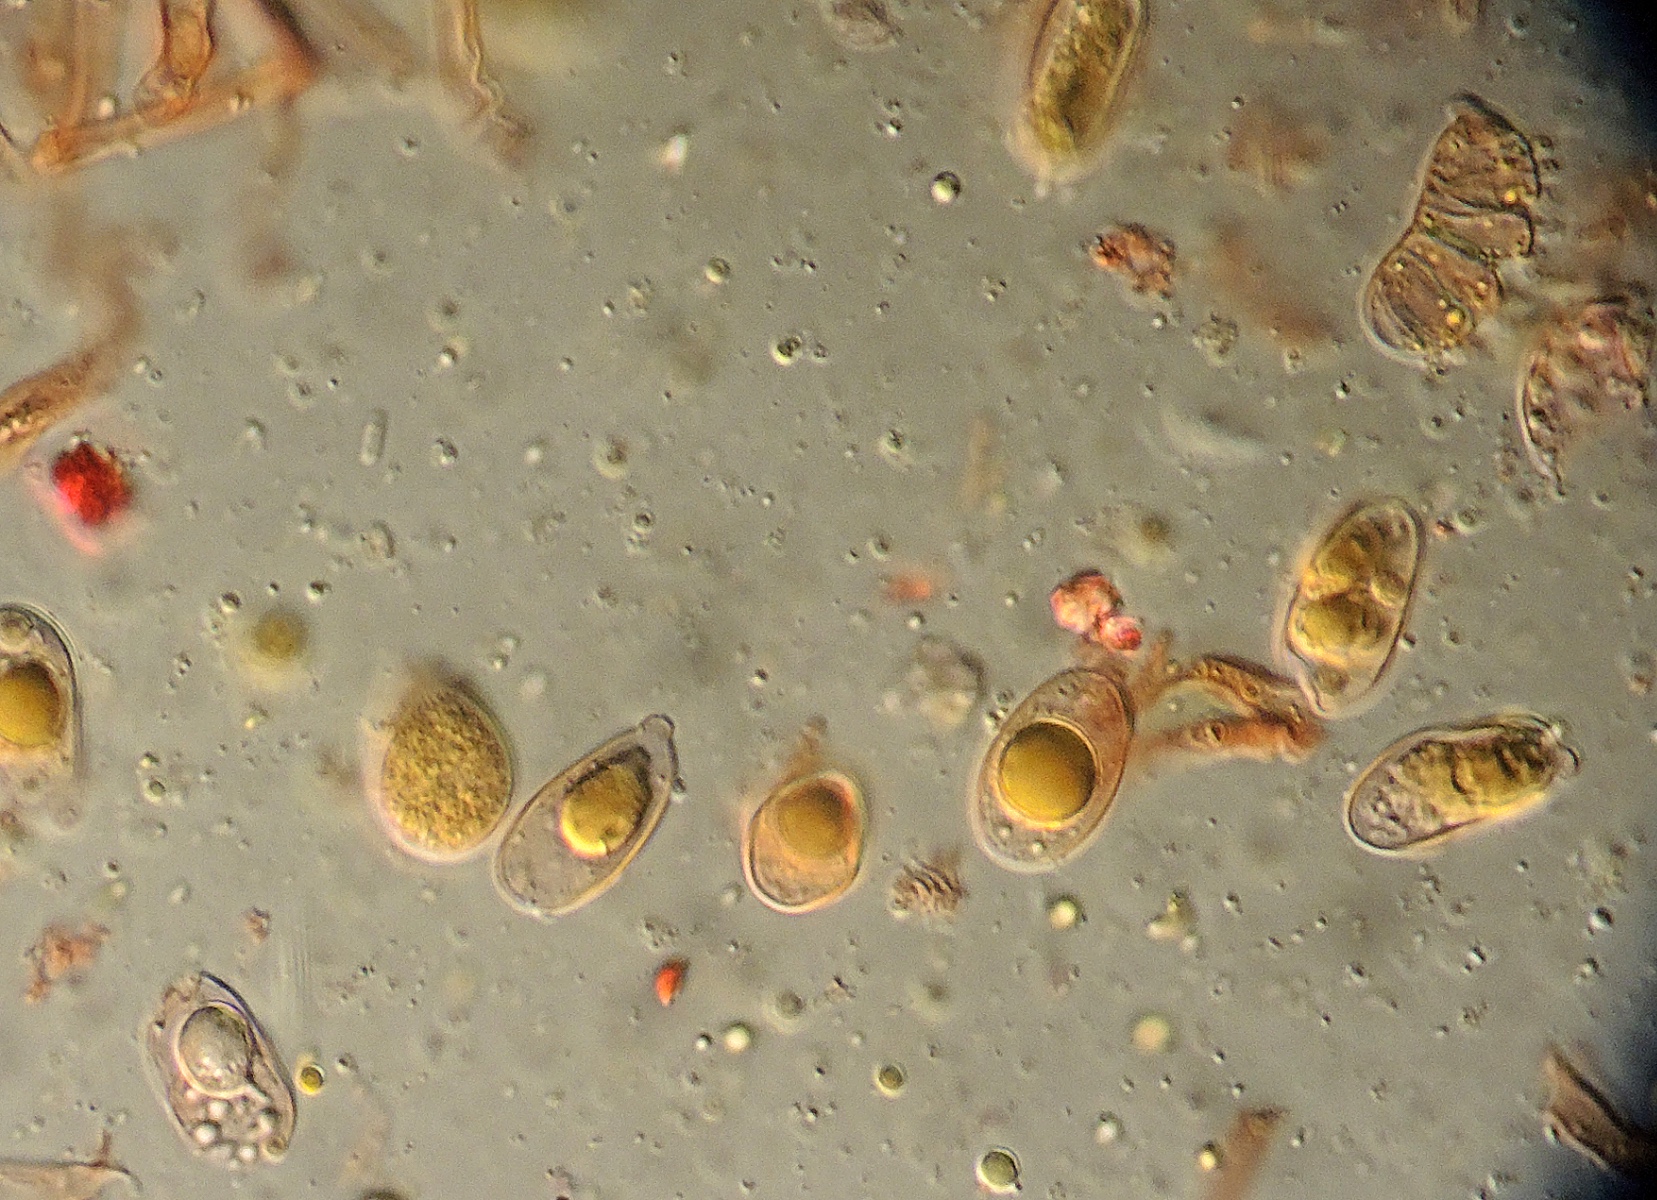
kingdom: Fungi
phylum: Basidiomycota
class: Dacrymycetes
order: Dacrymycetales
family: Dacrymycetaceae
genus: Dacrymyces
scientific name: Dacrymyces ovisporus
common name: ægsporet tåresvamp
